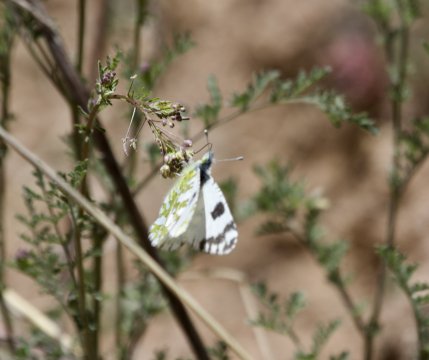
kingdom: Animalia
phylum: Arthropoda
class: Insecta
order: Lepidoptera
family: Pieridae
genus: Euchloe
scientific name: Euchloe lotta
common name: Desert Marble
